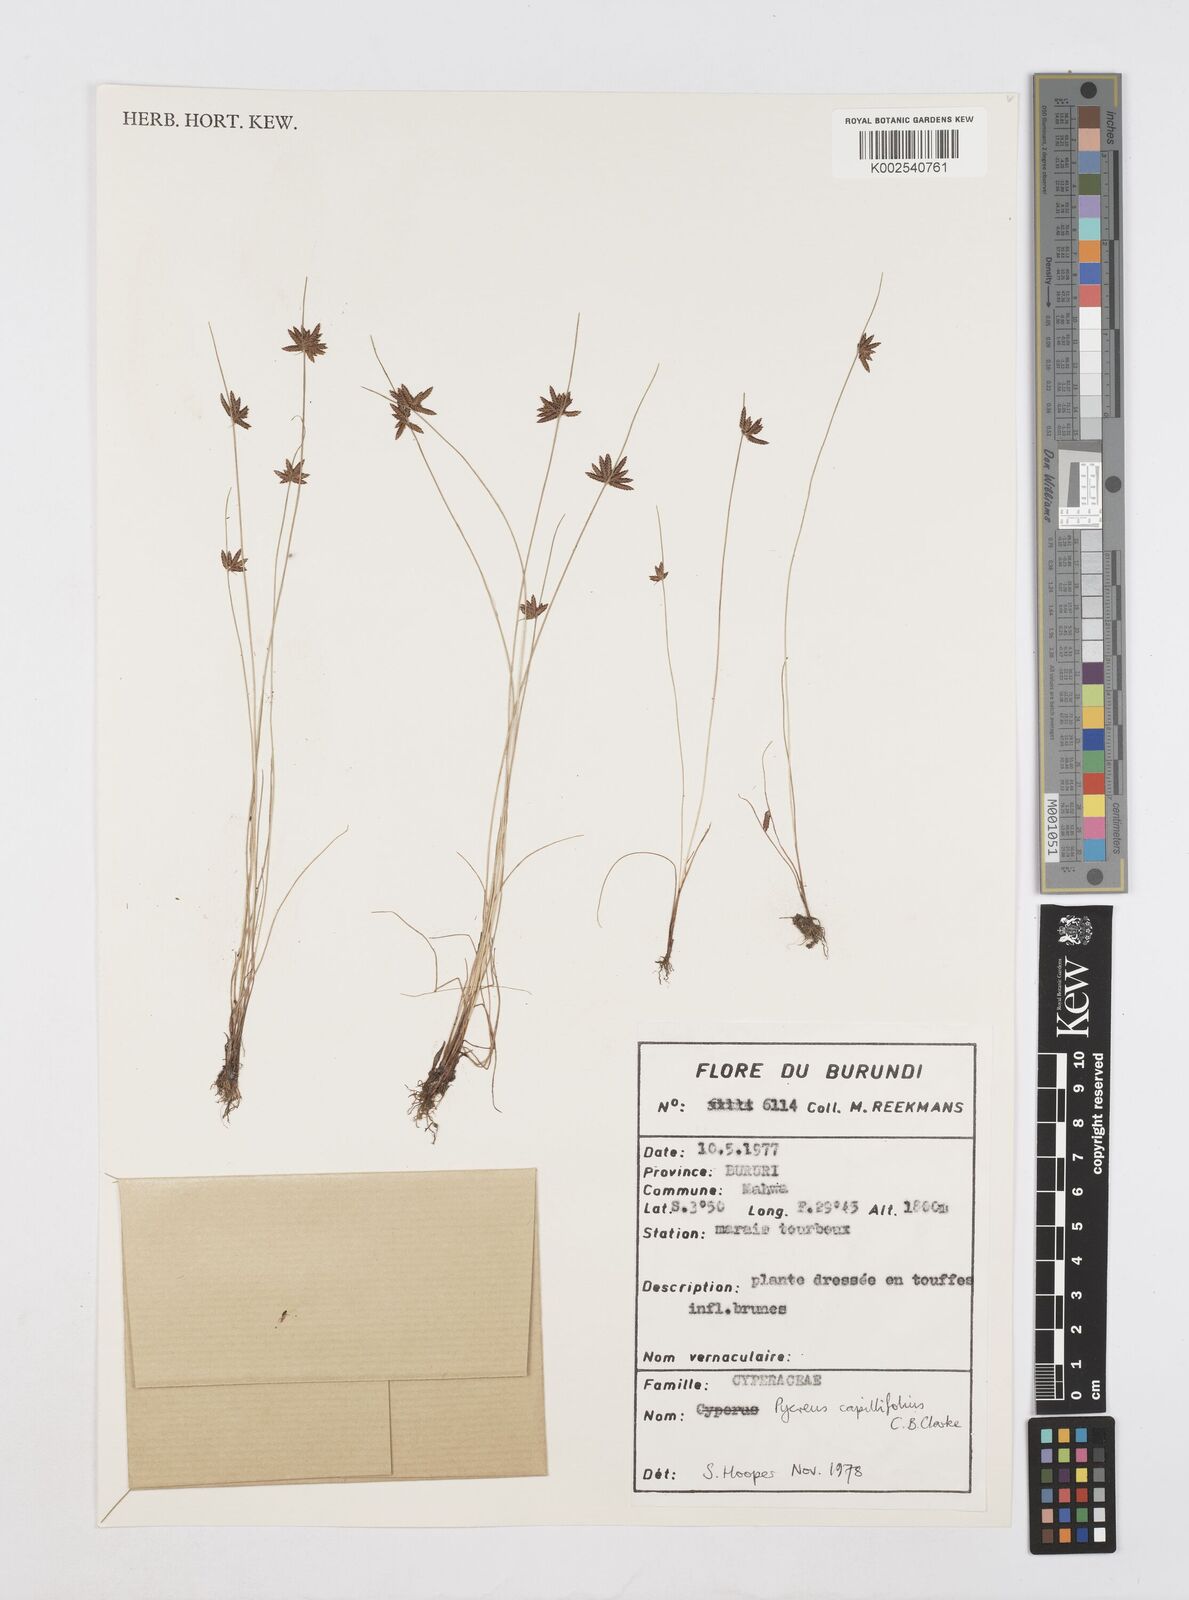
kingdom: Plantae
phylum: Tracheophyta
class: Liliopsida
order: Poales
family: Cyperaceae
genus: Cyperus
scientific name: Cyperus capillifolius
